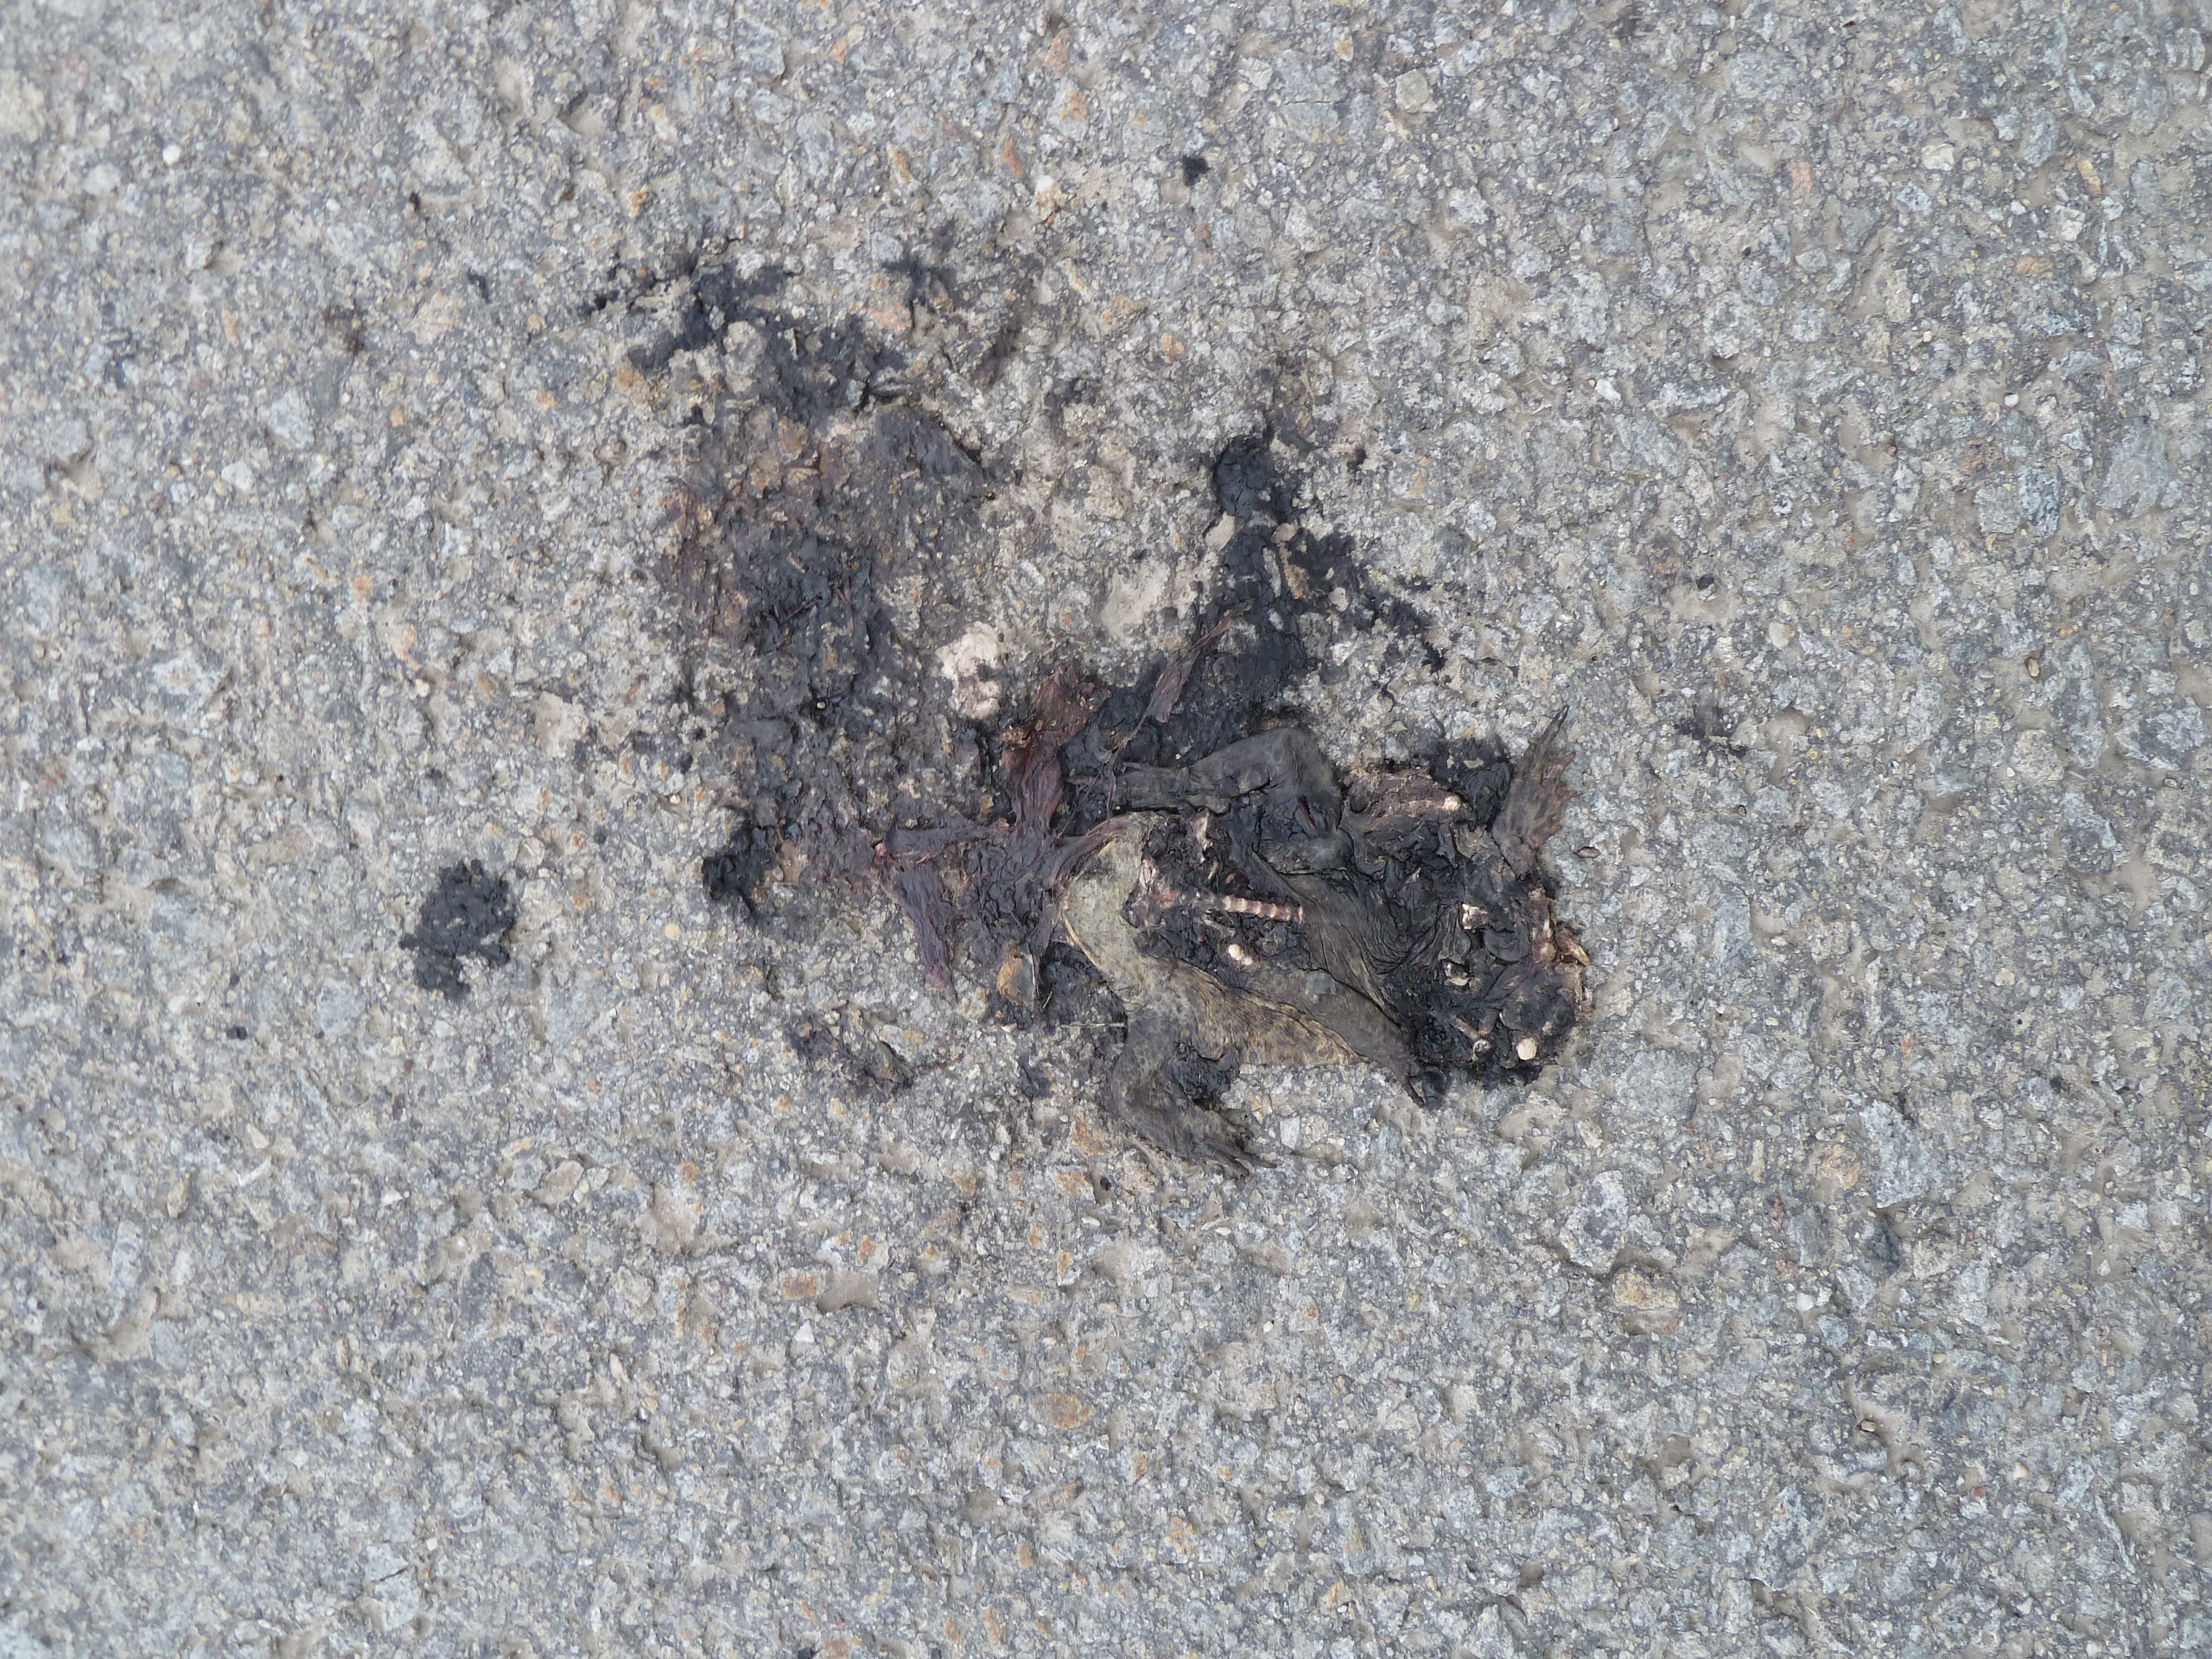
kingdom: Animalia
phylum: Chordata
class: Amphibia
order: Anura
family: Bufonidae
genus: Bufo
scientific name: Bufo bufo
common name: Common toad
